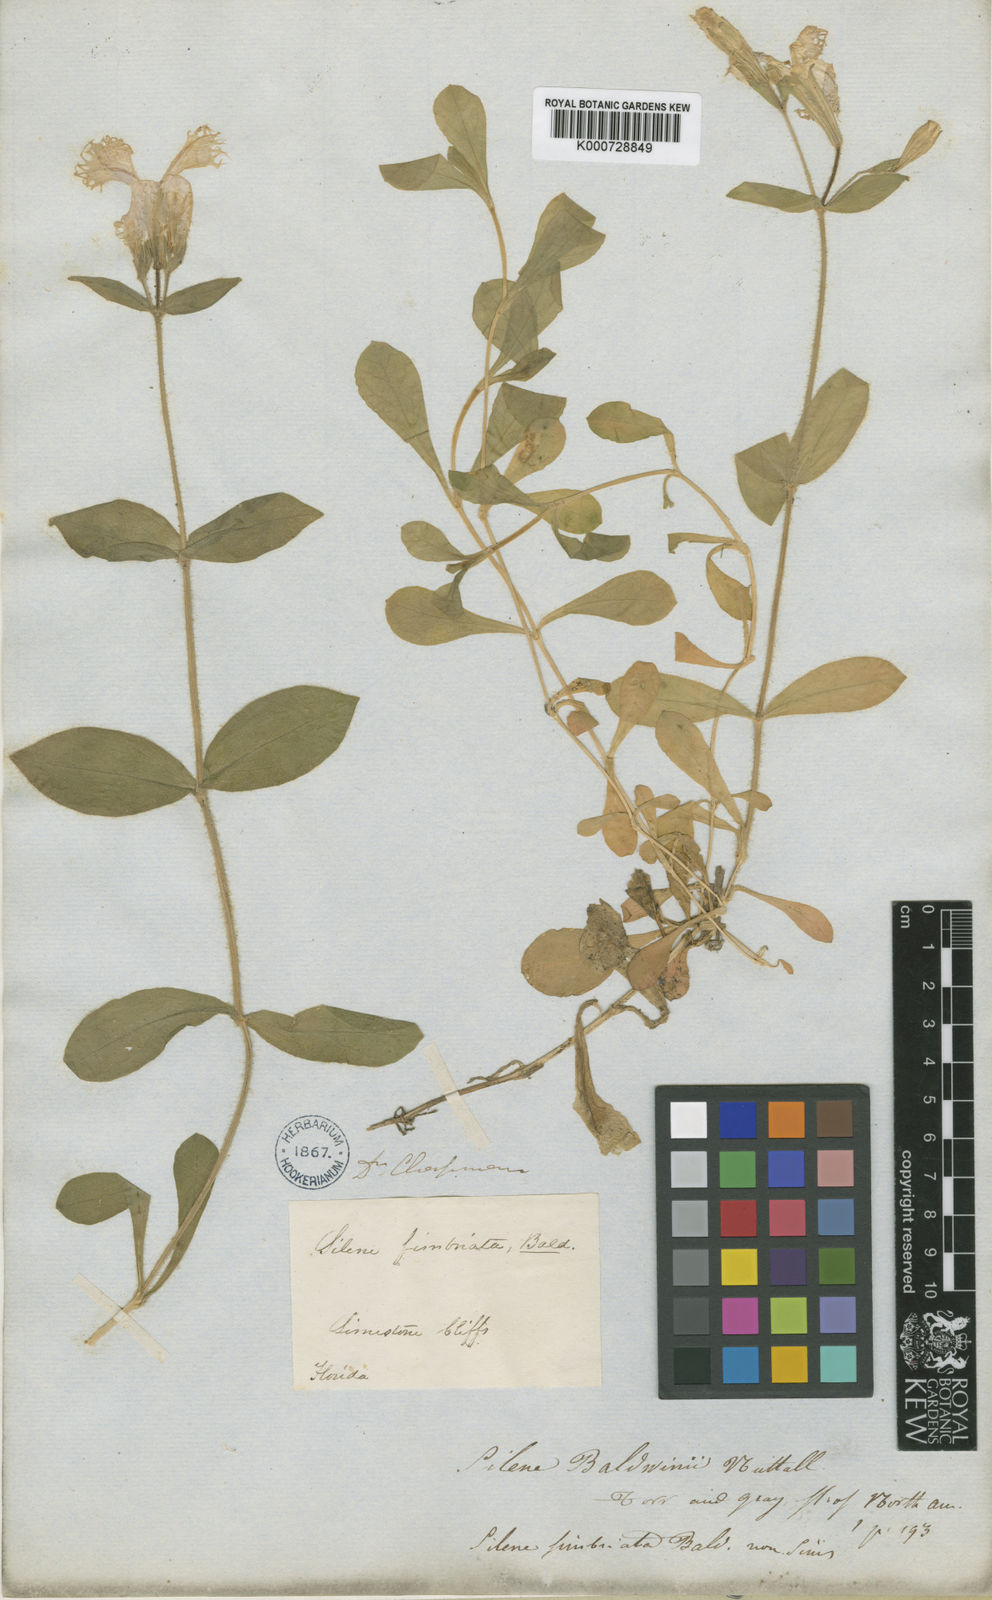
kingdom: Plantae
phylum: Tracheophyta
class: Magnoliopsida
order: Caryophyllales
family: Caryophyllaceae
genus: Silene
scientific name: Silene polypetala
